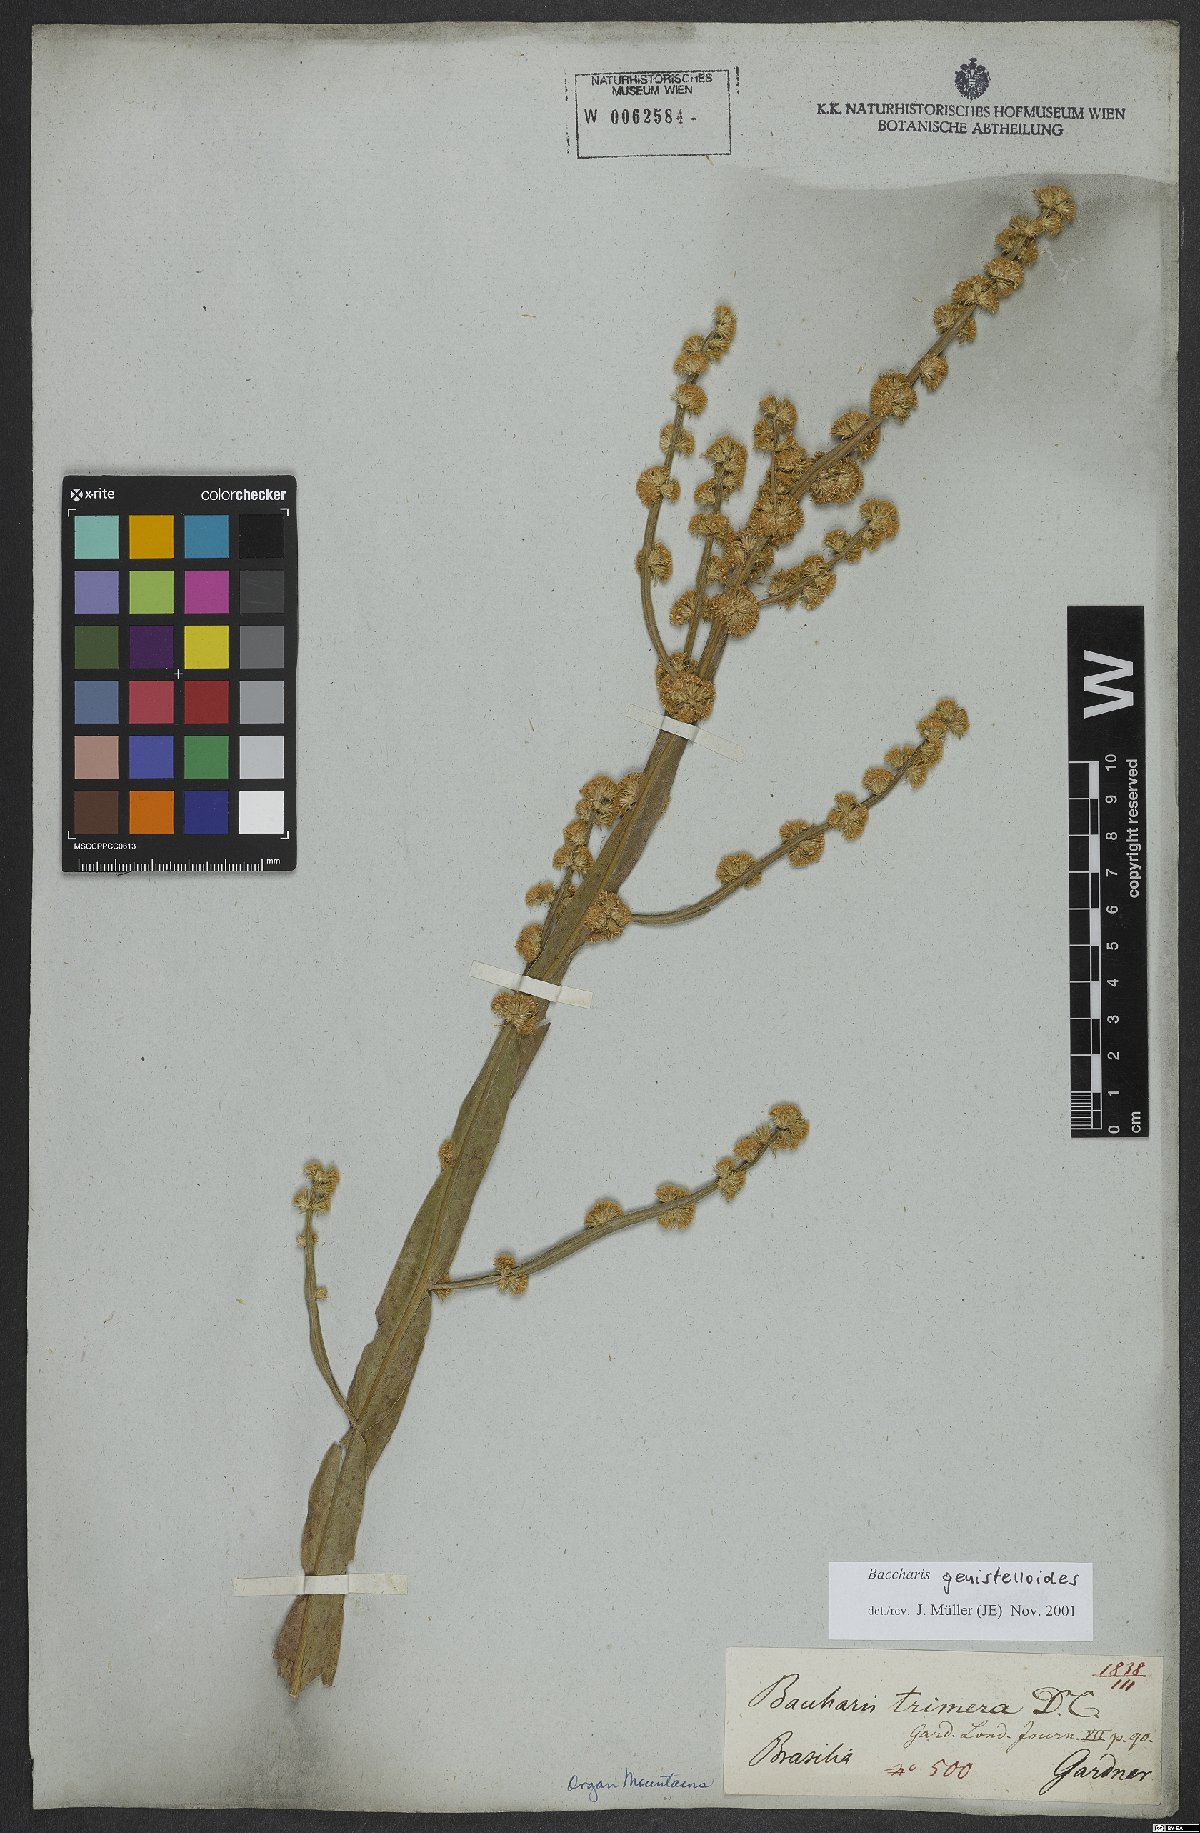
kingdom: Plantae
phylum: Tracheophyta
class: Magnoliopsida
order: Asterales
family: Asteraceae
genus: Baccharis
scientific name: Baccharis genistelloides
